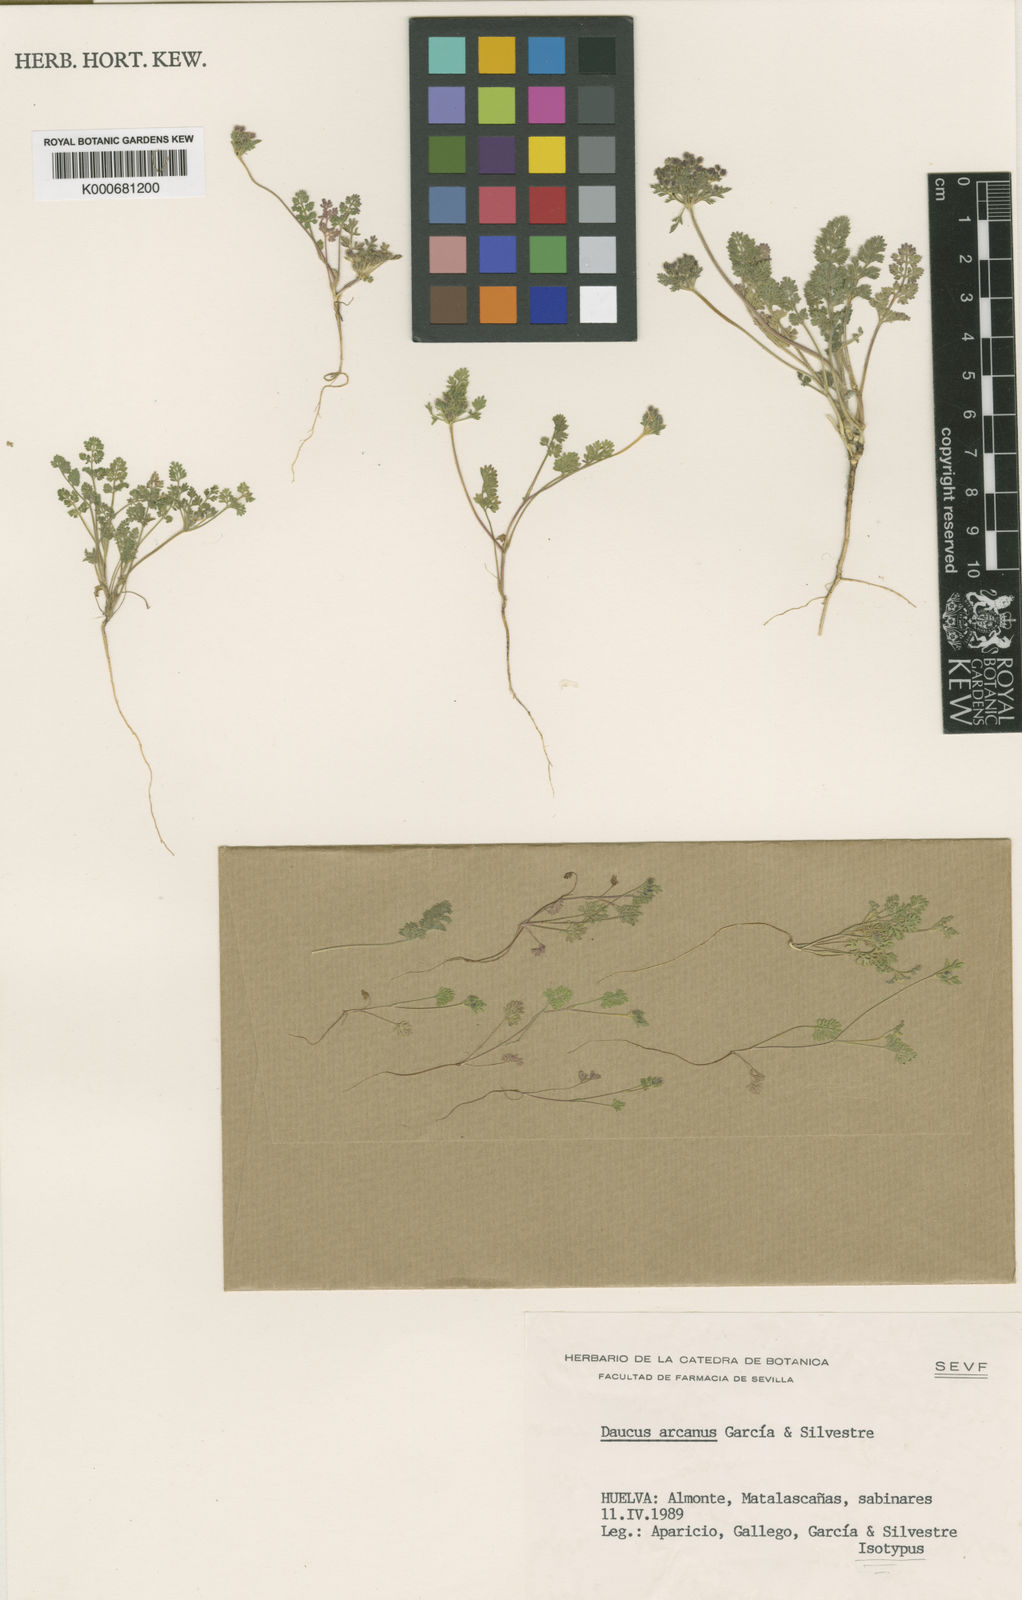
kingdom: Plantae
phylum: Tracheophyta
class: Magnoliopsida
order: Apiales
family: Apiaceae
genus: Daucus
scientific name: Daucus arcanus
